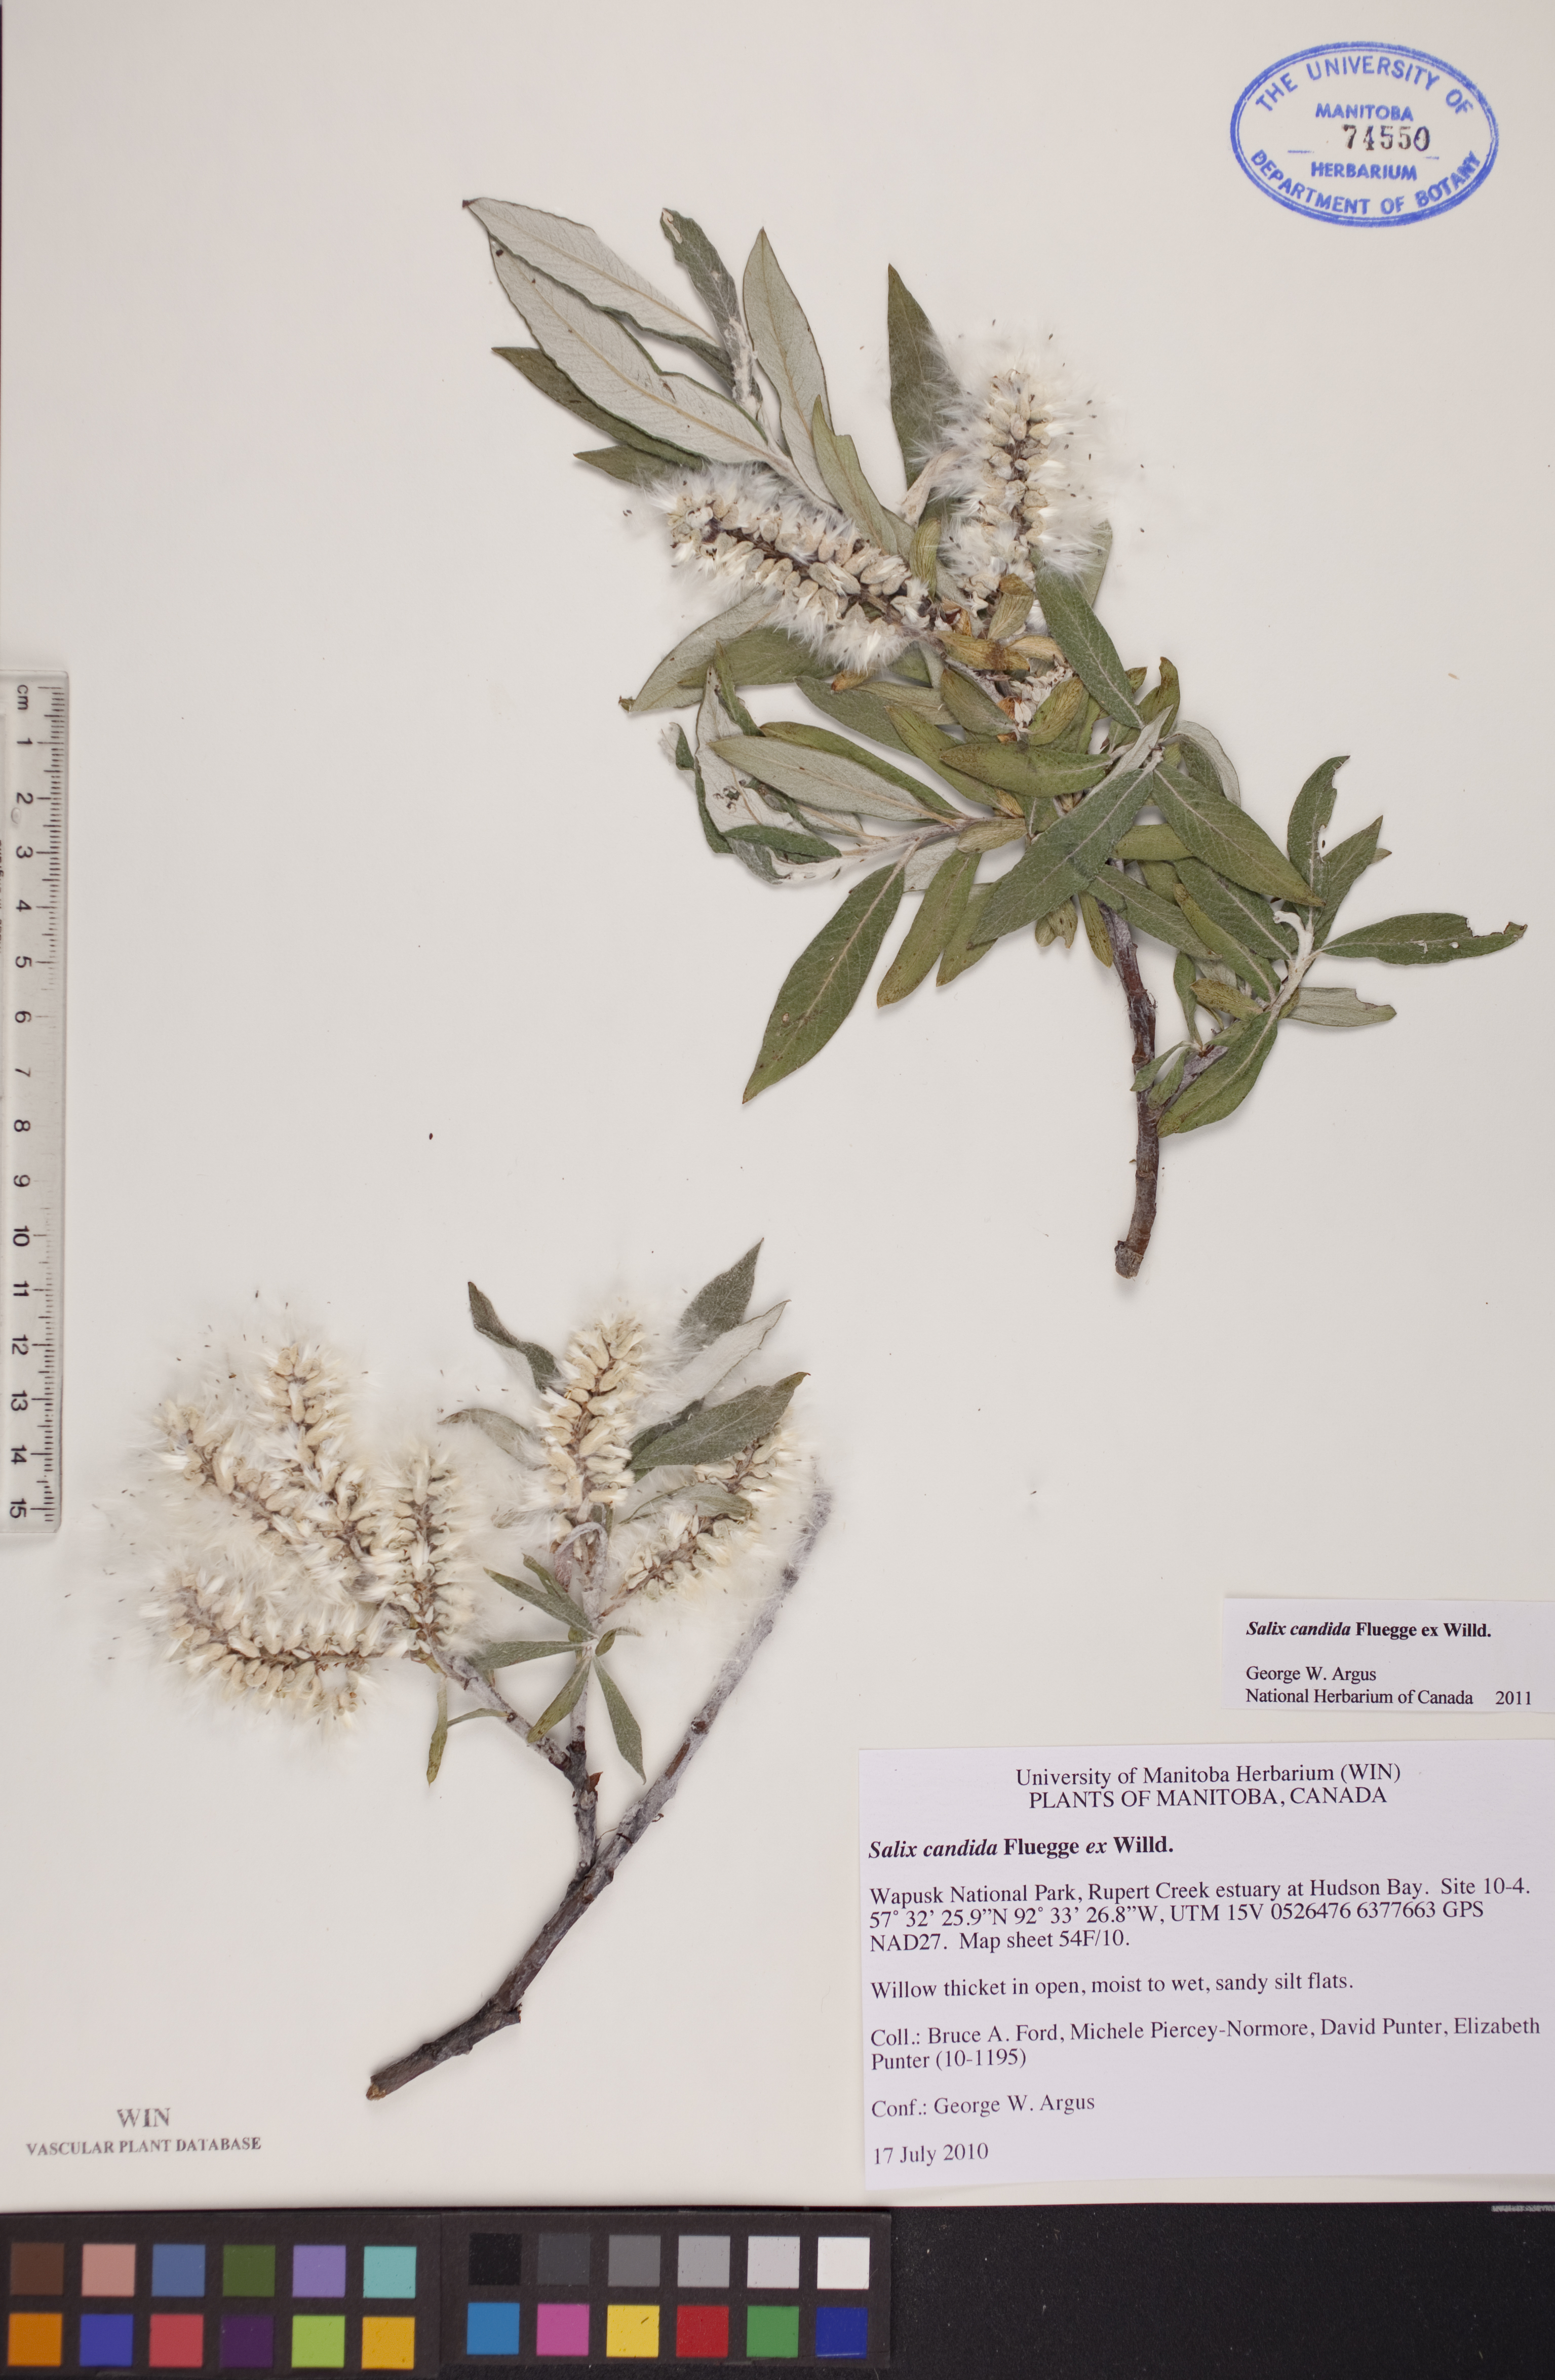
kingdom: Plantae
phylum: Tracheophyta
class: Magnoliopsida
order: Malpighiales
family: Salicaceae
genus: Salix
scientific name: Salix candida
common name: Hoary willow
